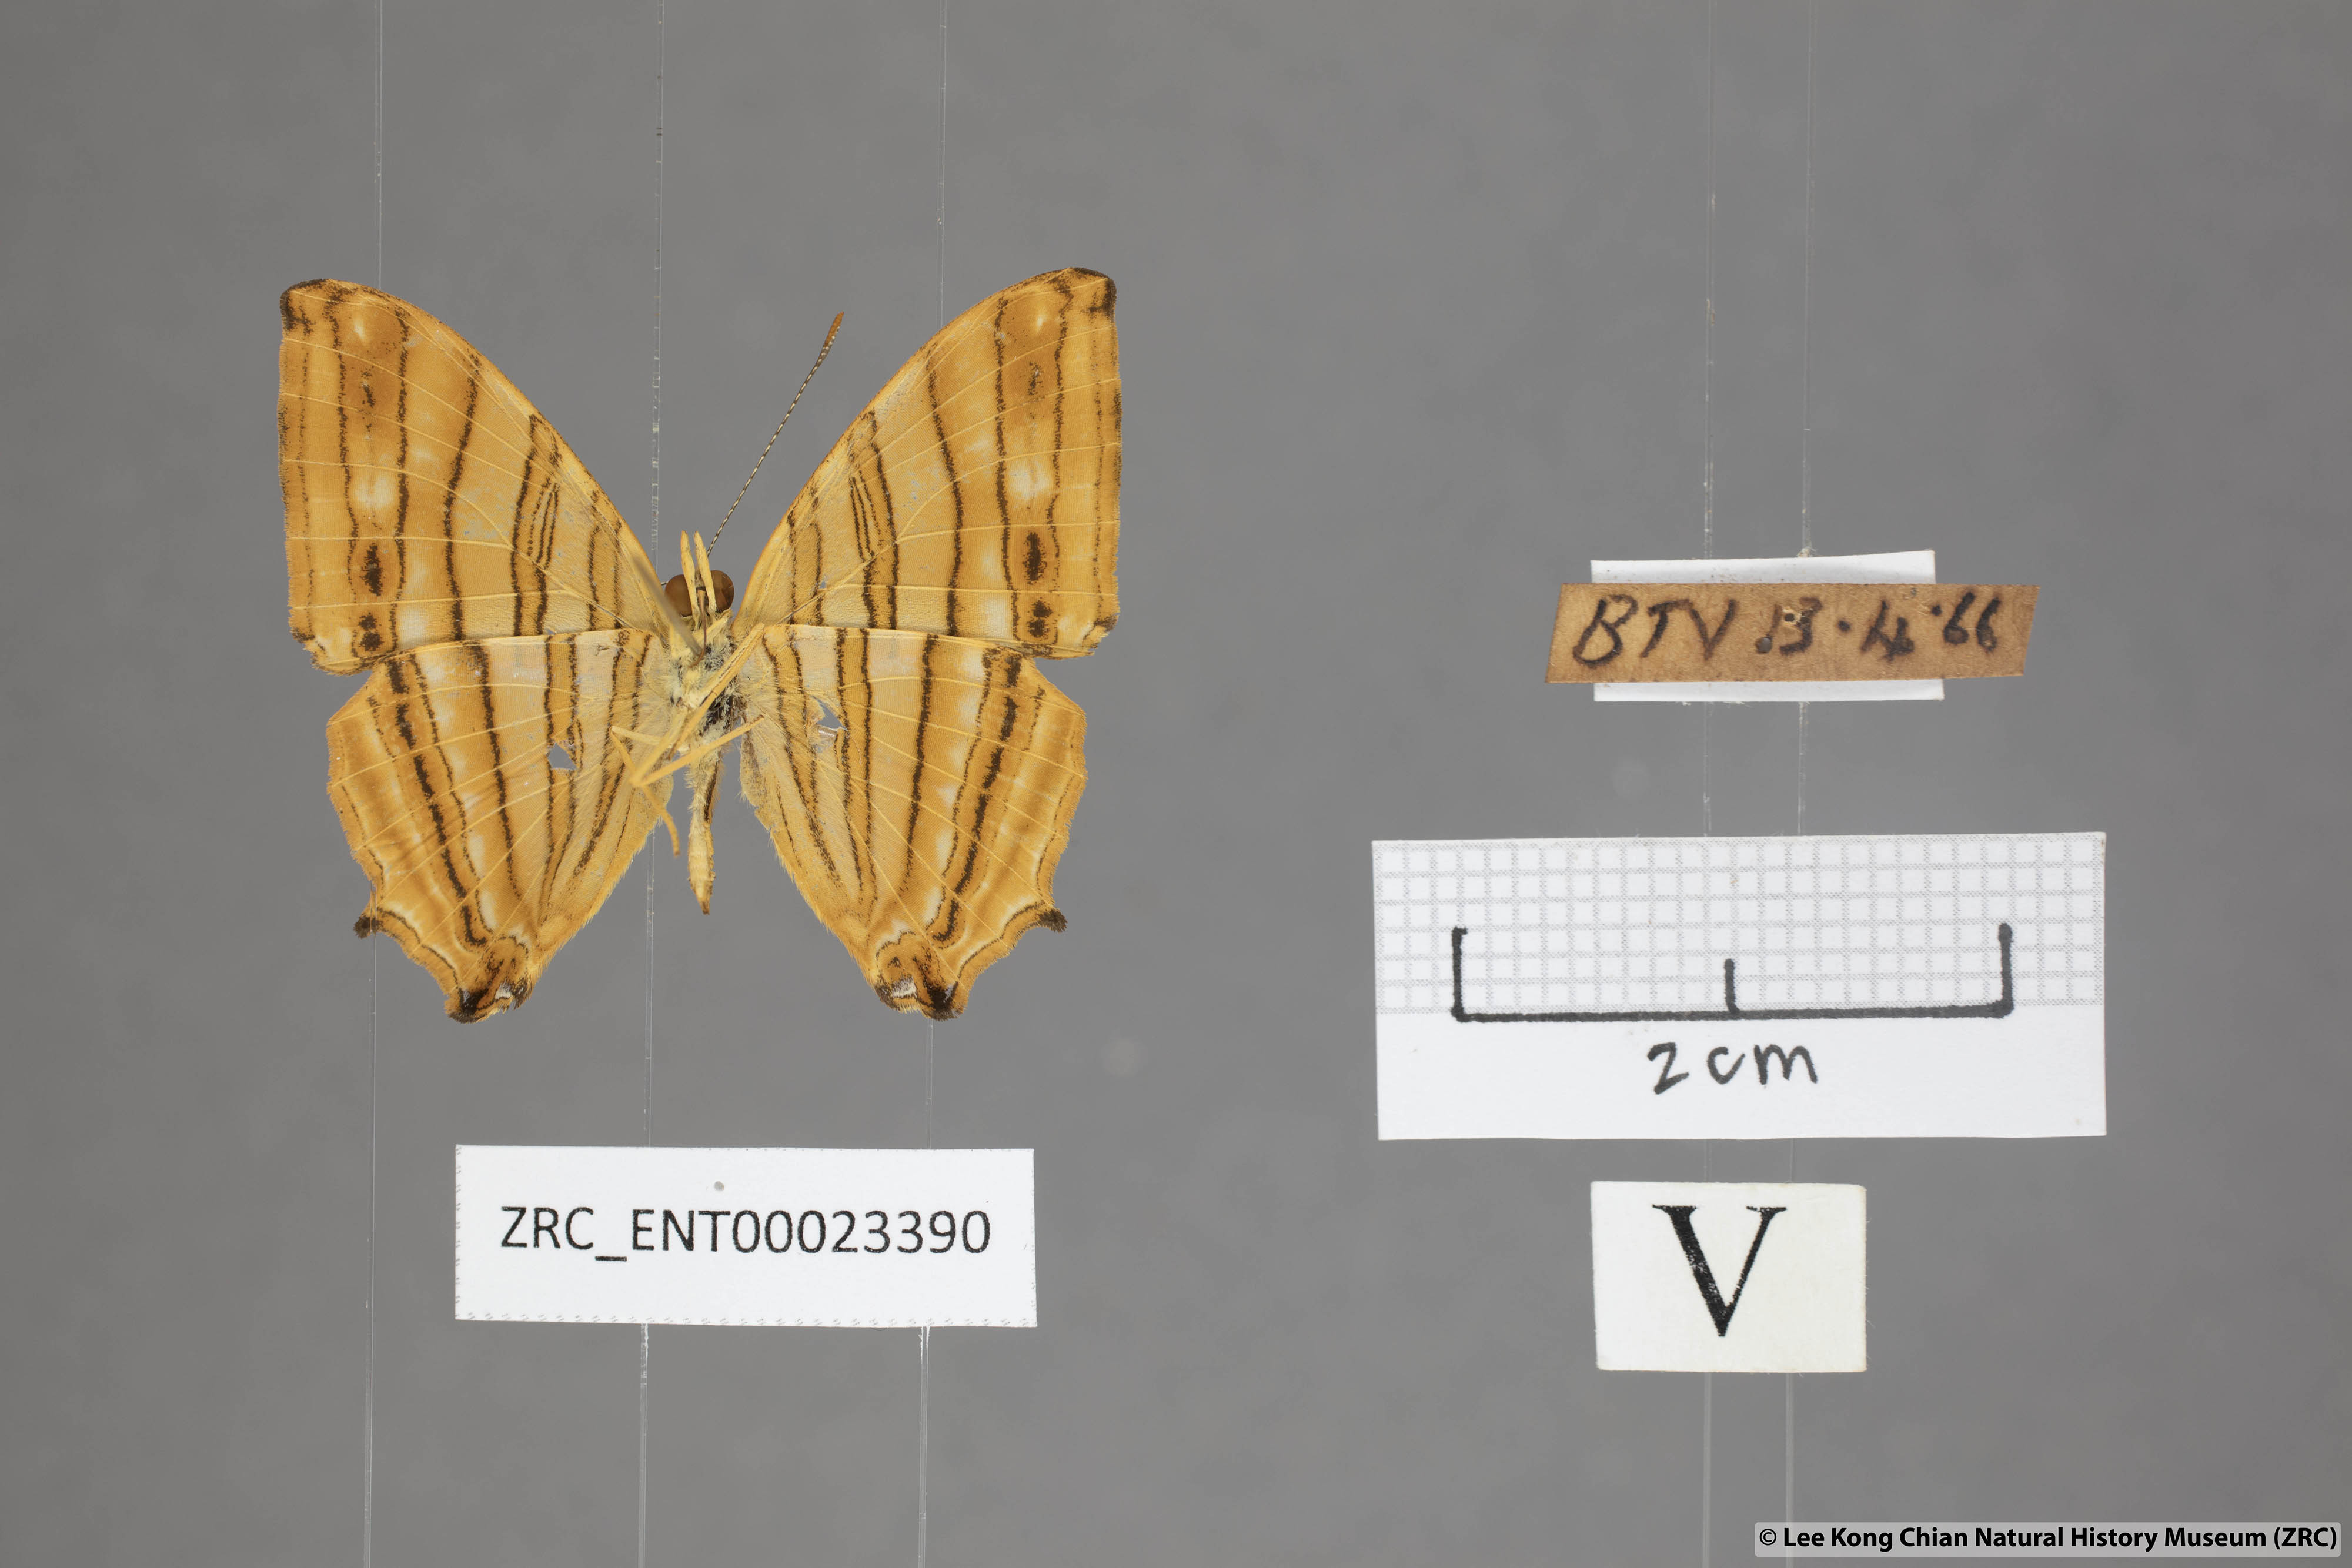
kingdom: Animalia
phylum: Arthropoda
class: Insecta
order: Lepidoptera
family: Nymphalidae
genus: Chersonesia
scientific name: Chersonesia risa
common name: Common maplet
